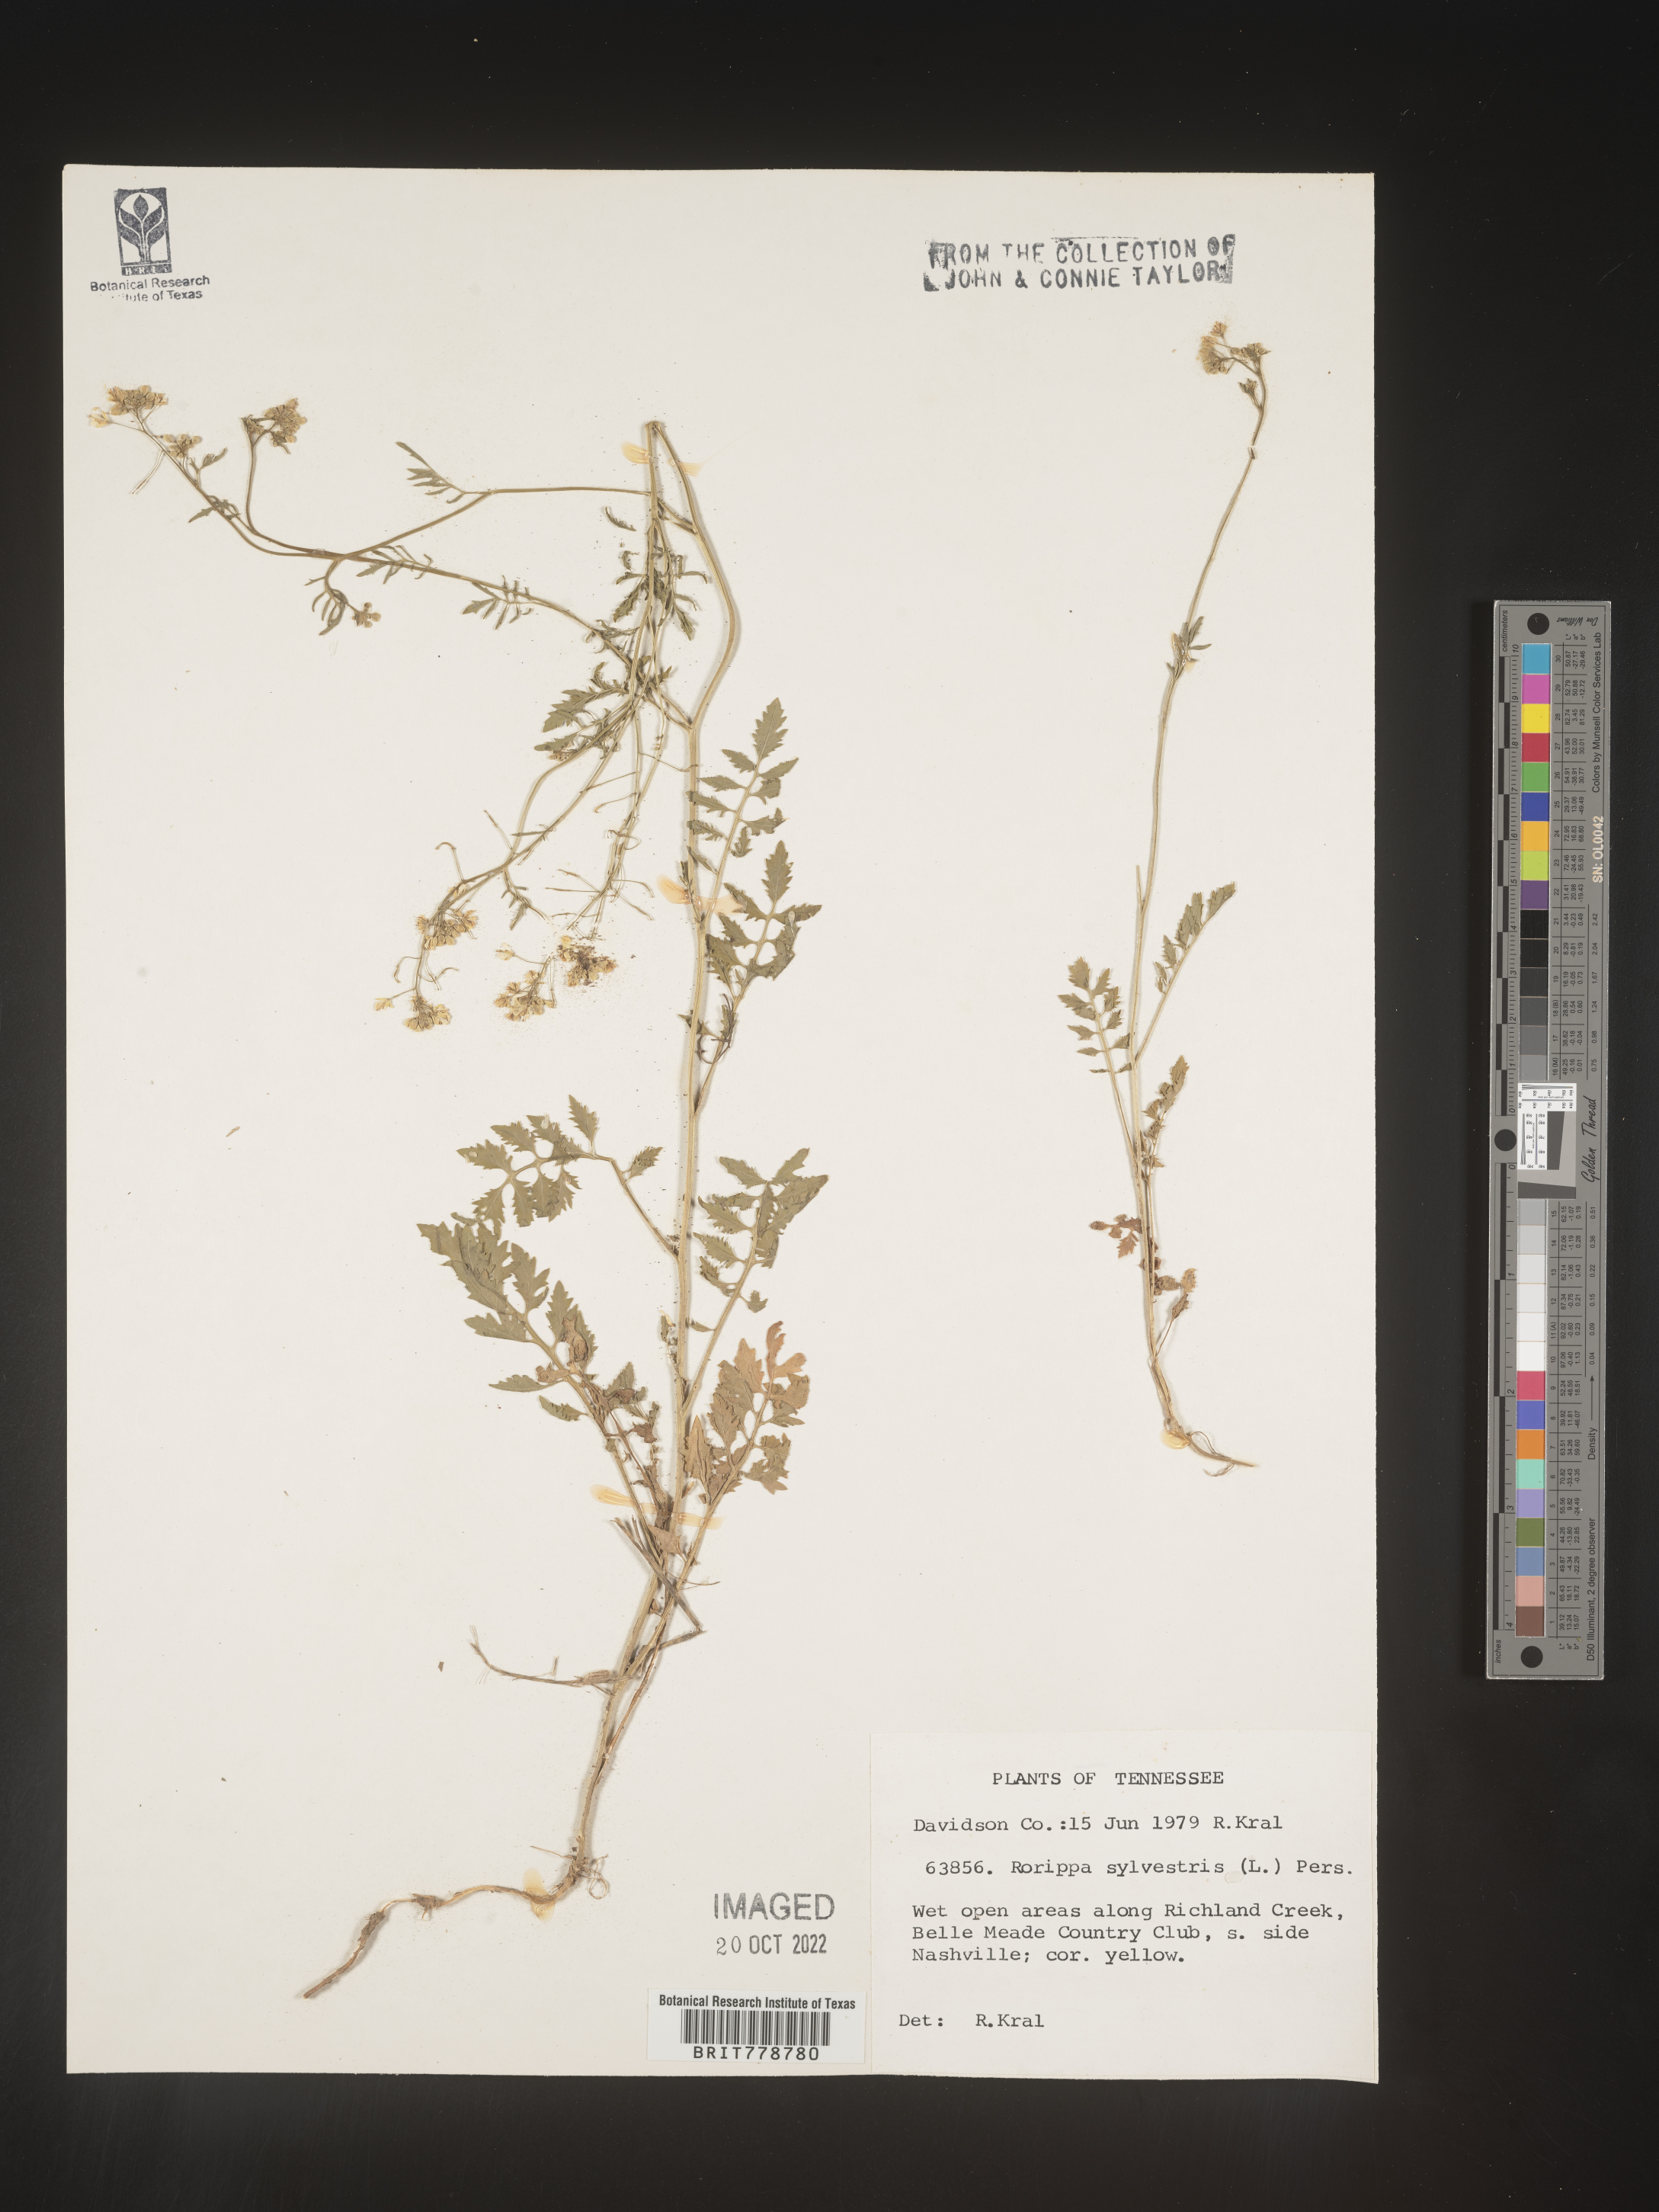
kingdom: Plantae
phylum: Tracheophyta
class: Magnoliopsida
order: Brassicales
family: Brassicaceae
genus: Rorippa
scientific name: Rorippa sylvestris
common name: Creeping yellowcress
